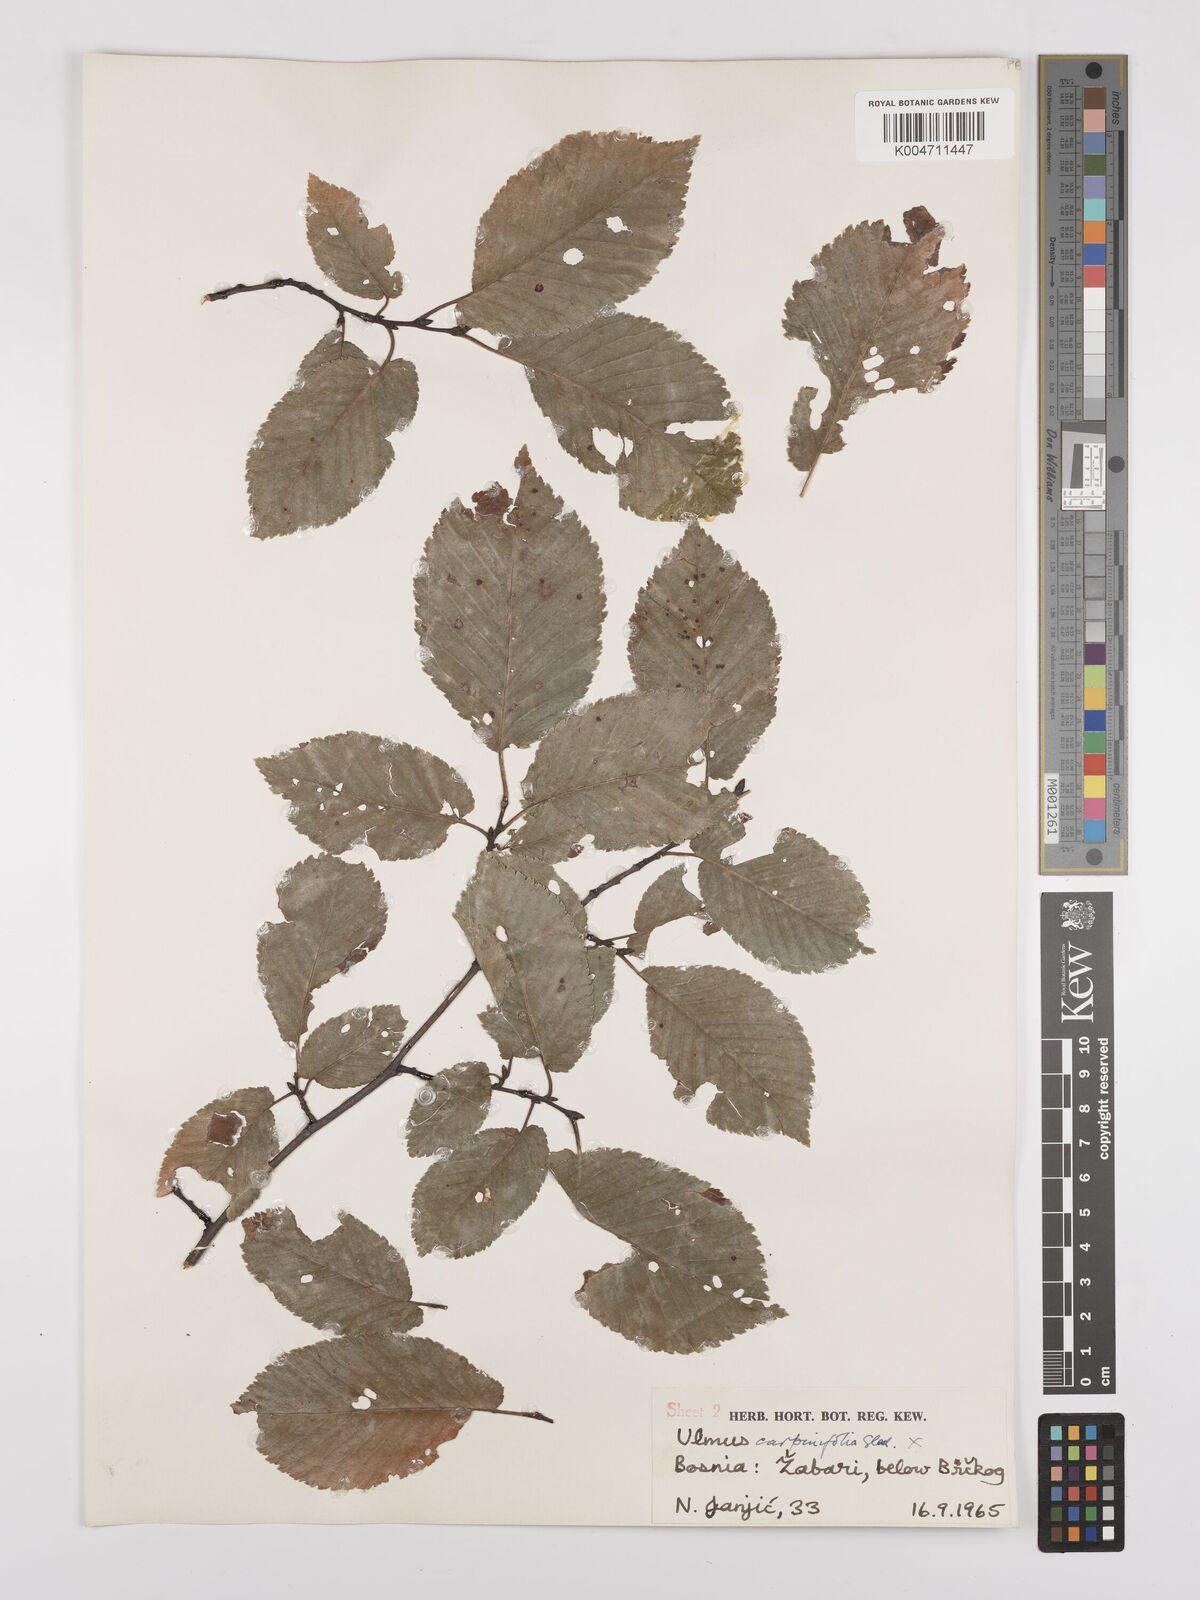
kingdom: Plantae
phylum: Tracheophyta
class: Magnoliopsida
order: Rosales
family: Ulmaceae
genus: Ulmus
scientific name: Ulmus minor
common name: Small-leaved elm
